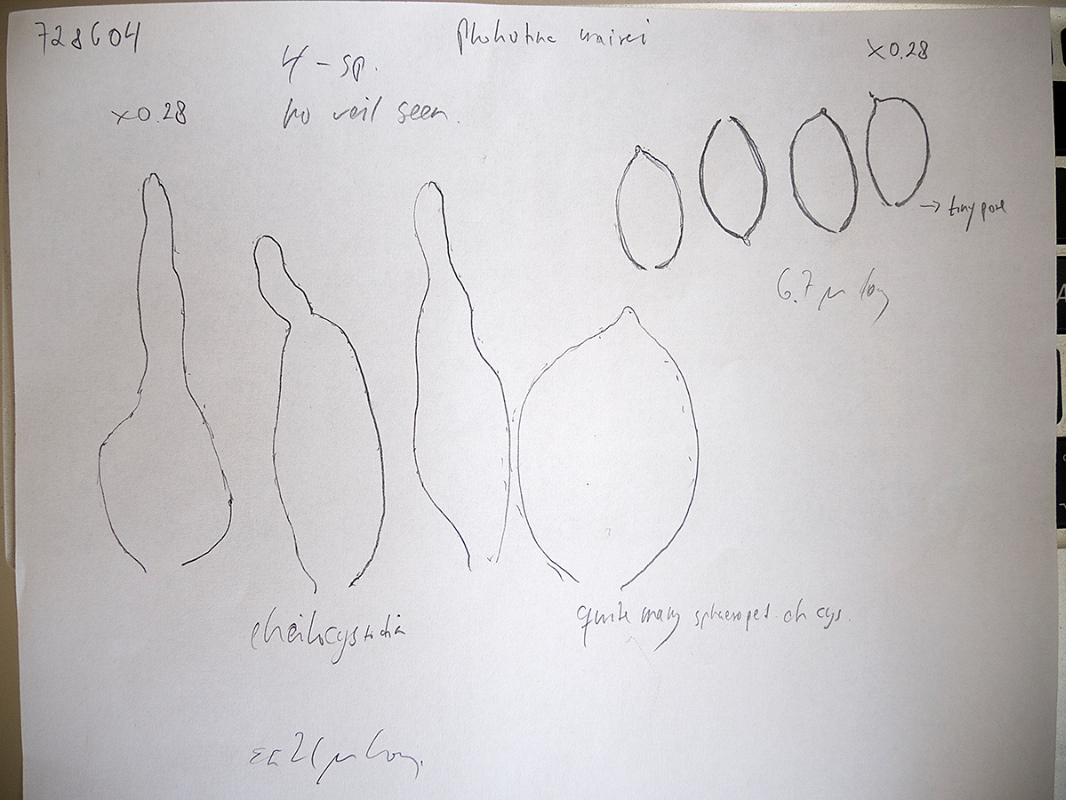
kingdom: Fungi
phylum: Basidiomycota
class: Agaricomycetes
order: Agaricales
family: Bolbitiaceae
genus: Conocybe
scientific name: Conocybe mairei
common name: spinkel dansehat
